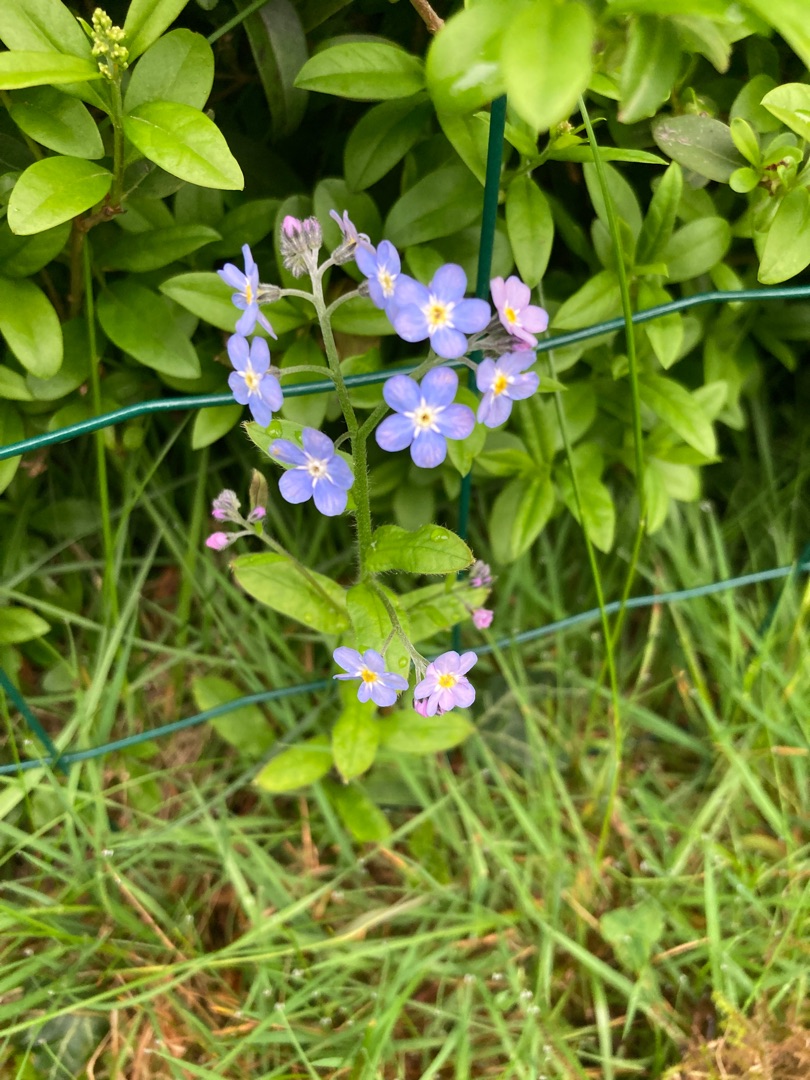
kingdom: Plantae
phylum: Tracheophyta
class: Magnoliopsida
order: Boraginales
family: Boraginaceae
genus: Myosotis
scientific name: Myosotis sylvatica
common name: Skov-forglemmigej
